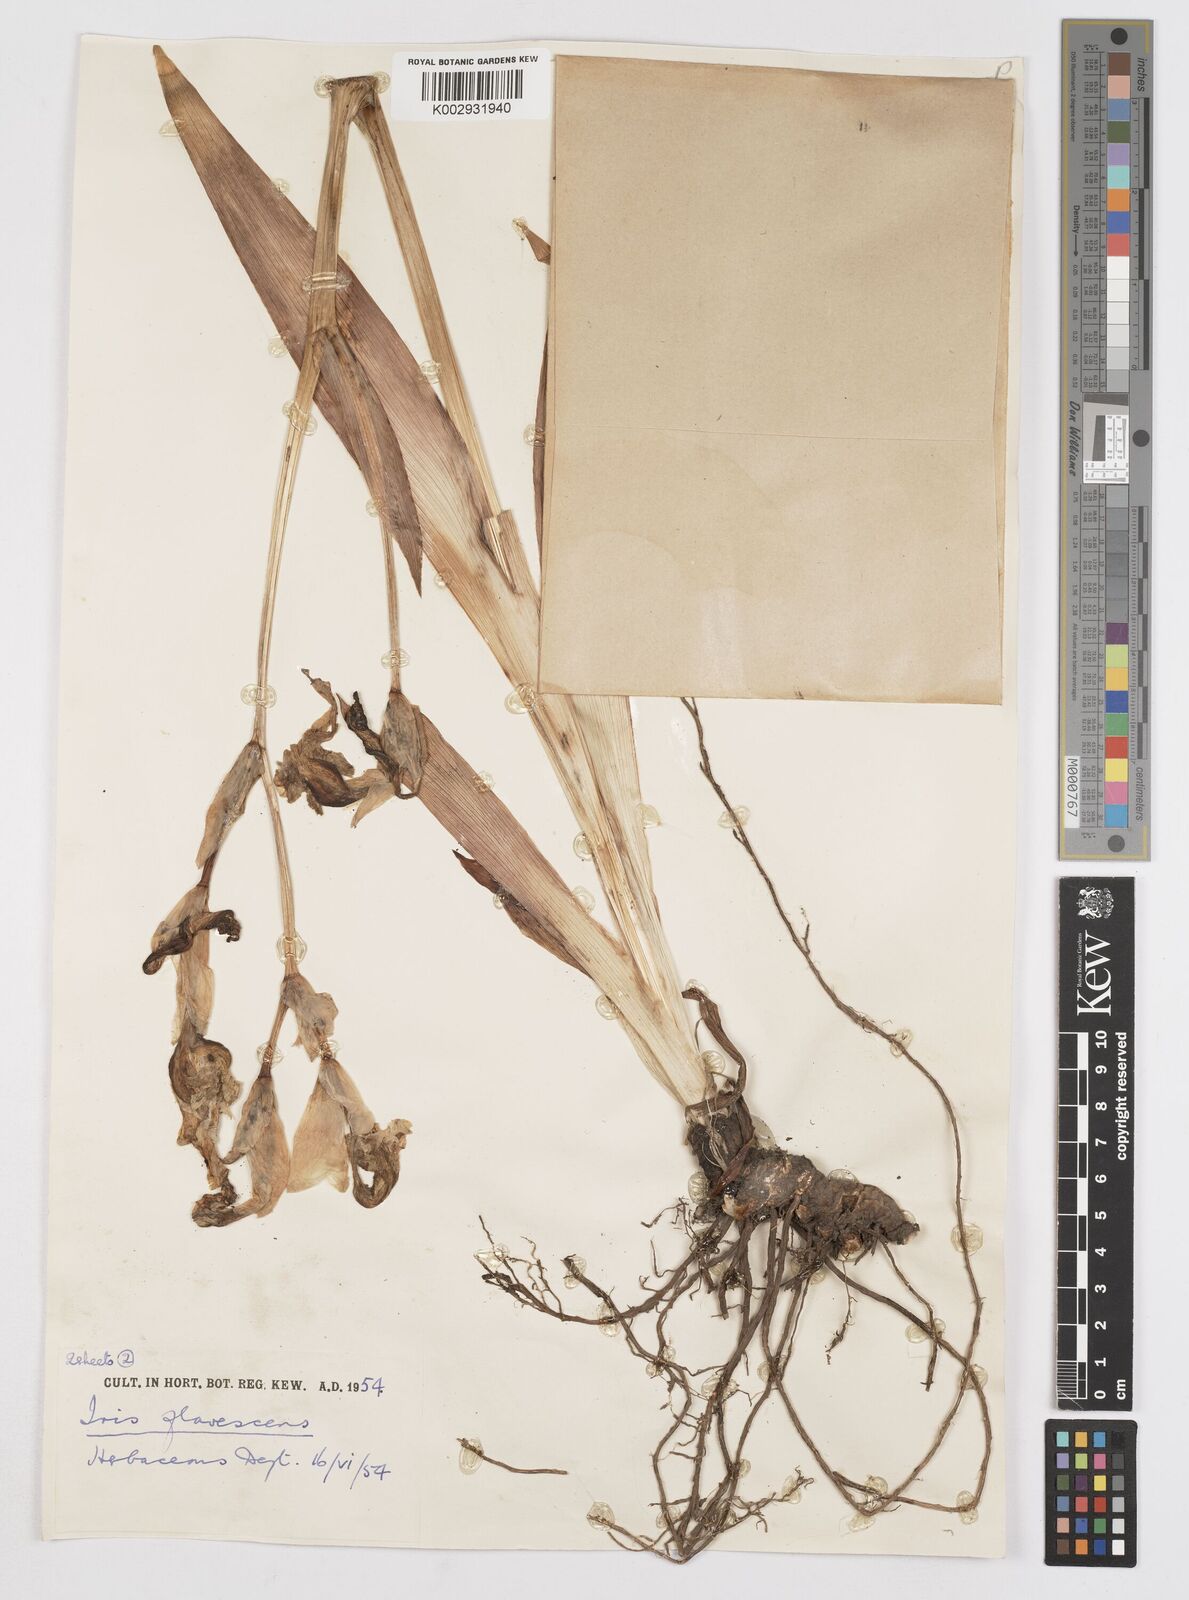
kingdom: Plantae
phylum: Tracheophyta
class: Liliopsida
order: Asparagales
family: Iridaceae
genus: Iris
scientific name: Iris variegata
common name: Hungarian iris
